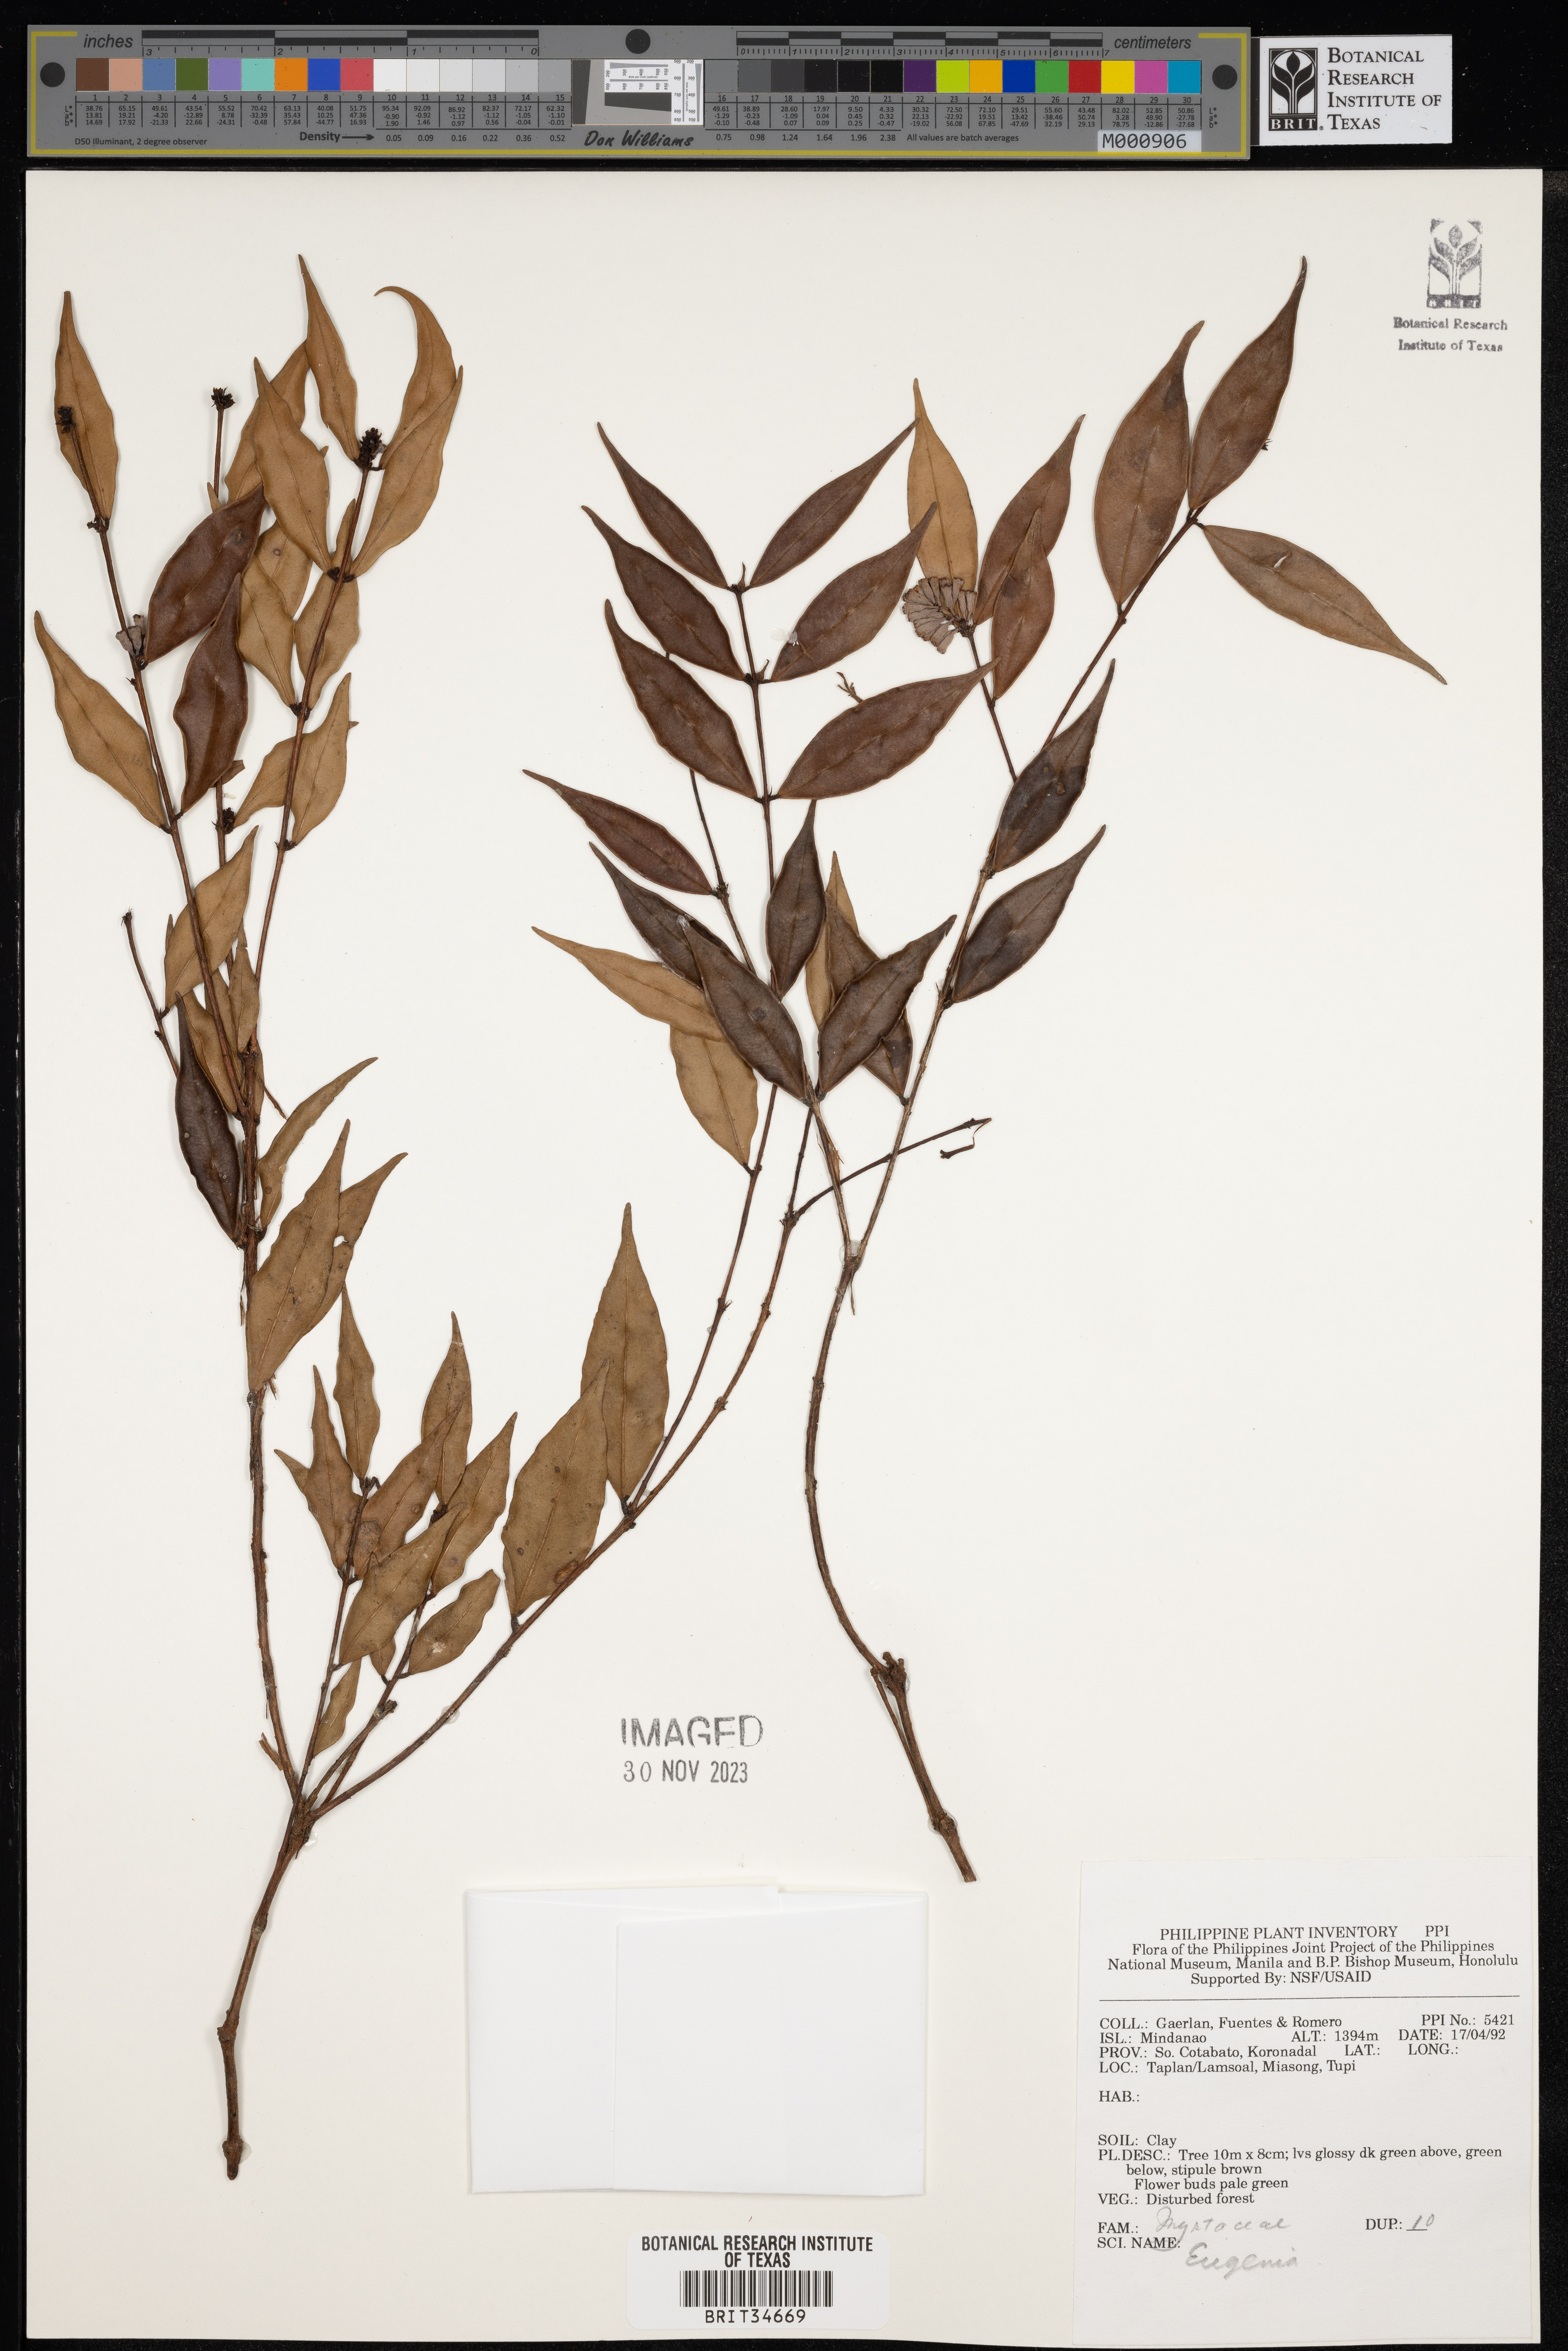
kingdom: Plantae
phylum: Tracheophyta
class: Magnoliopsida
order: Myrtales
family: Myrtaceae
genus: Eugenia
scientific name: Eugenia
